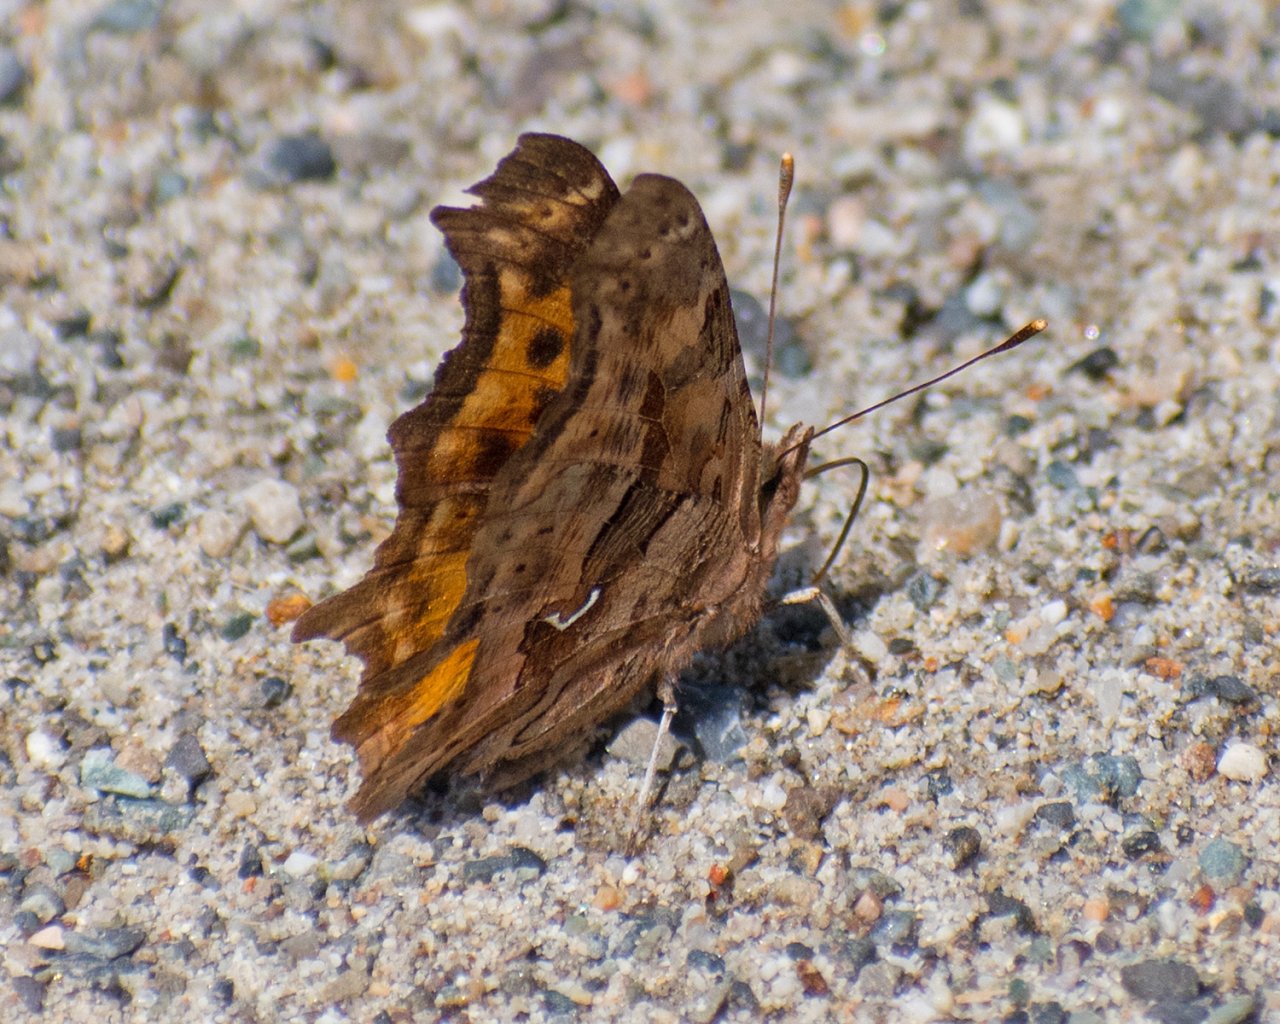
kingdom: Animalia
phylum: Arthropoda
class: Insecta
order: Lepidoptera
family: Nymphalidae
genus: Polygonia
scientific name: Polygonia satyrus
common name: Satyr Comma
